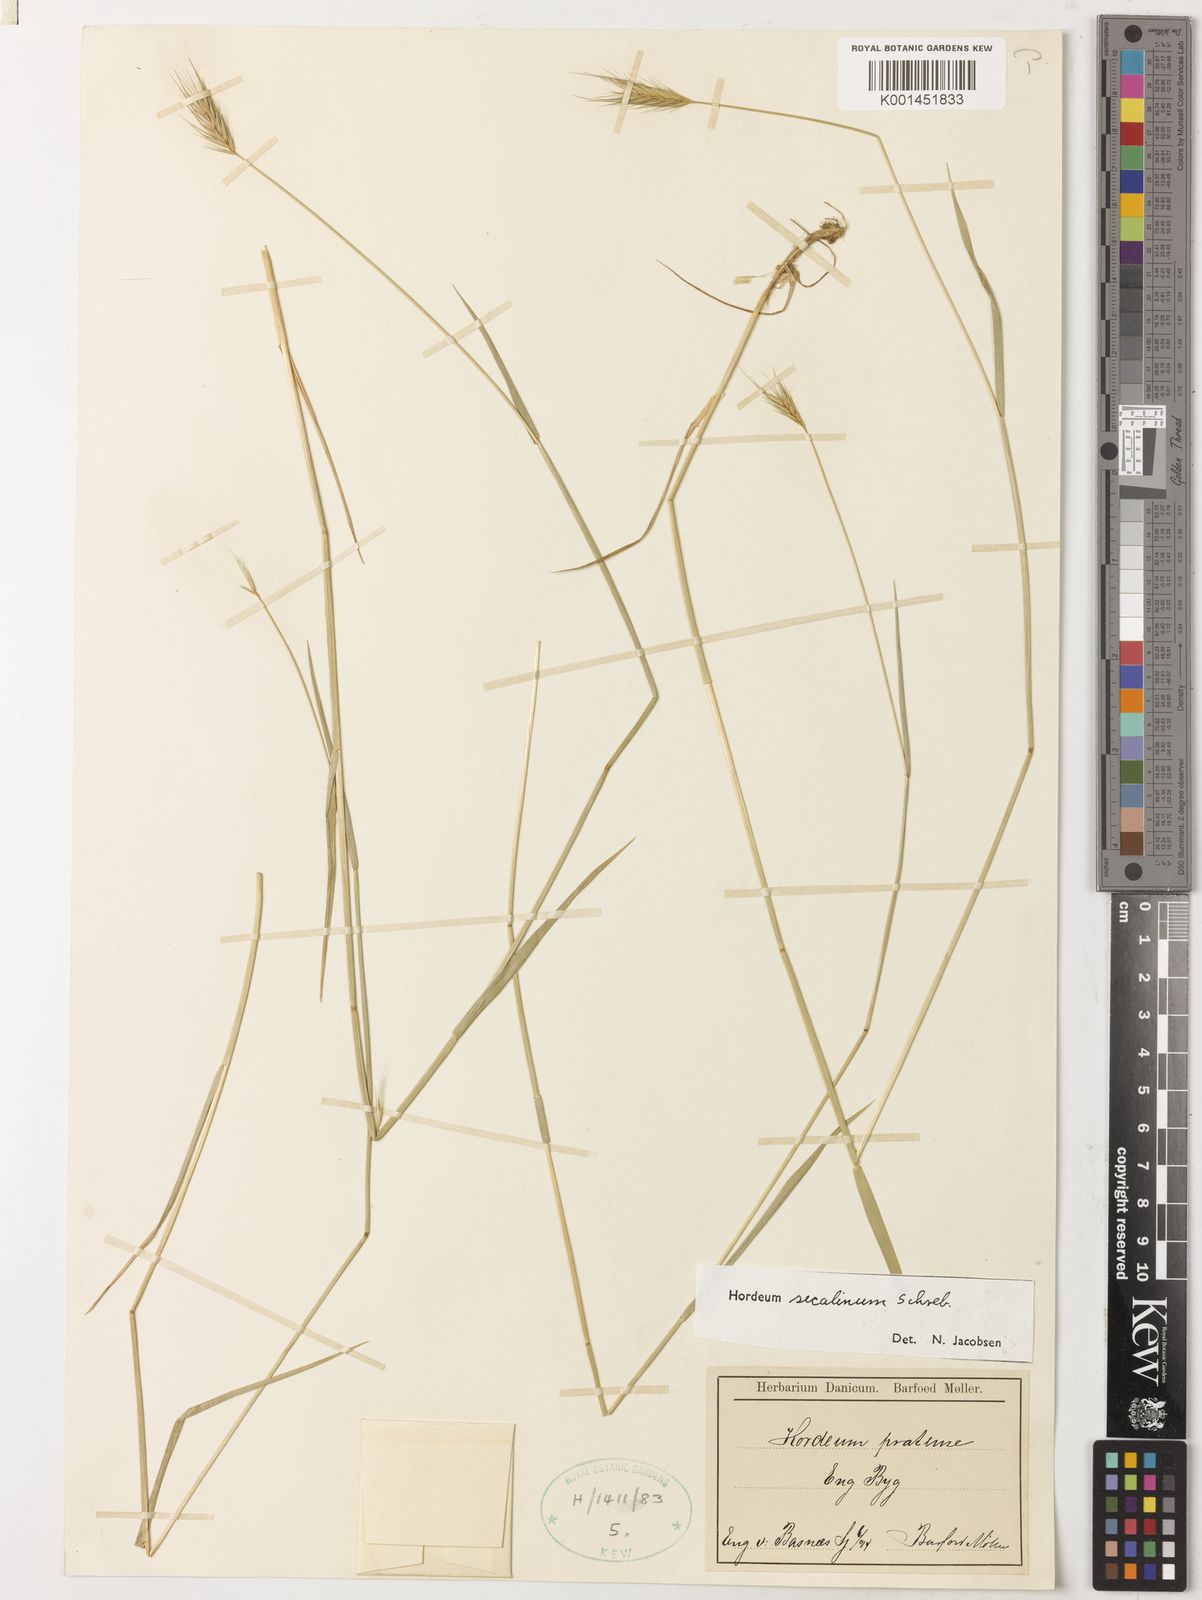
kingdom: Plantae
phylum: Tracheophyta
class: Liliopsida
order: Poales
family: Poaceae
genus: Hordeum
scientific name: Hordeum secalinum
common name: Meadow barley
